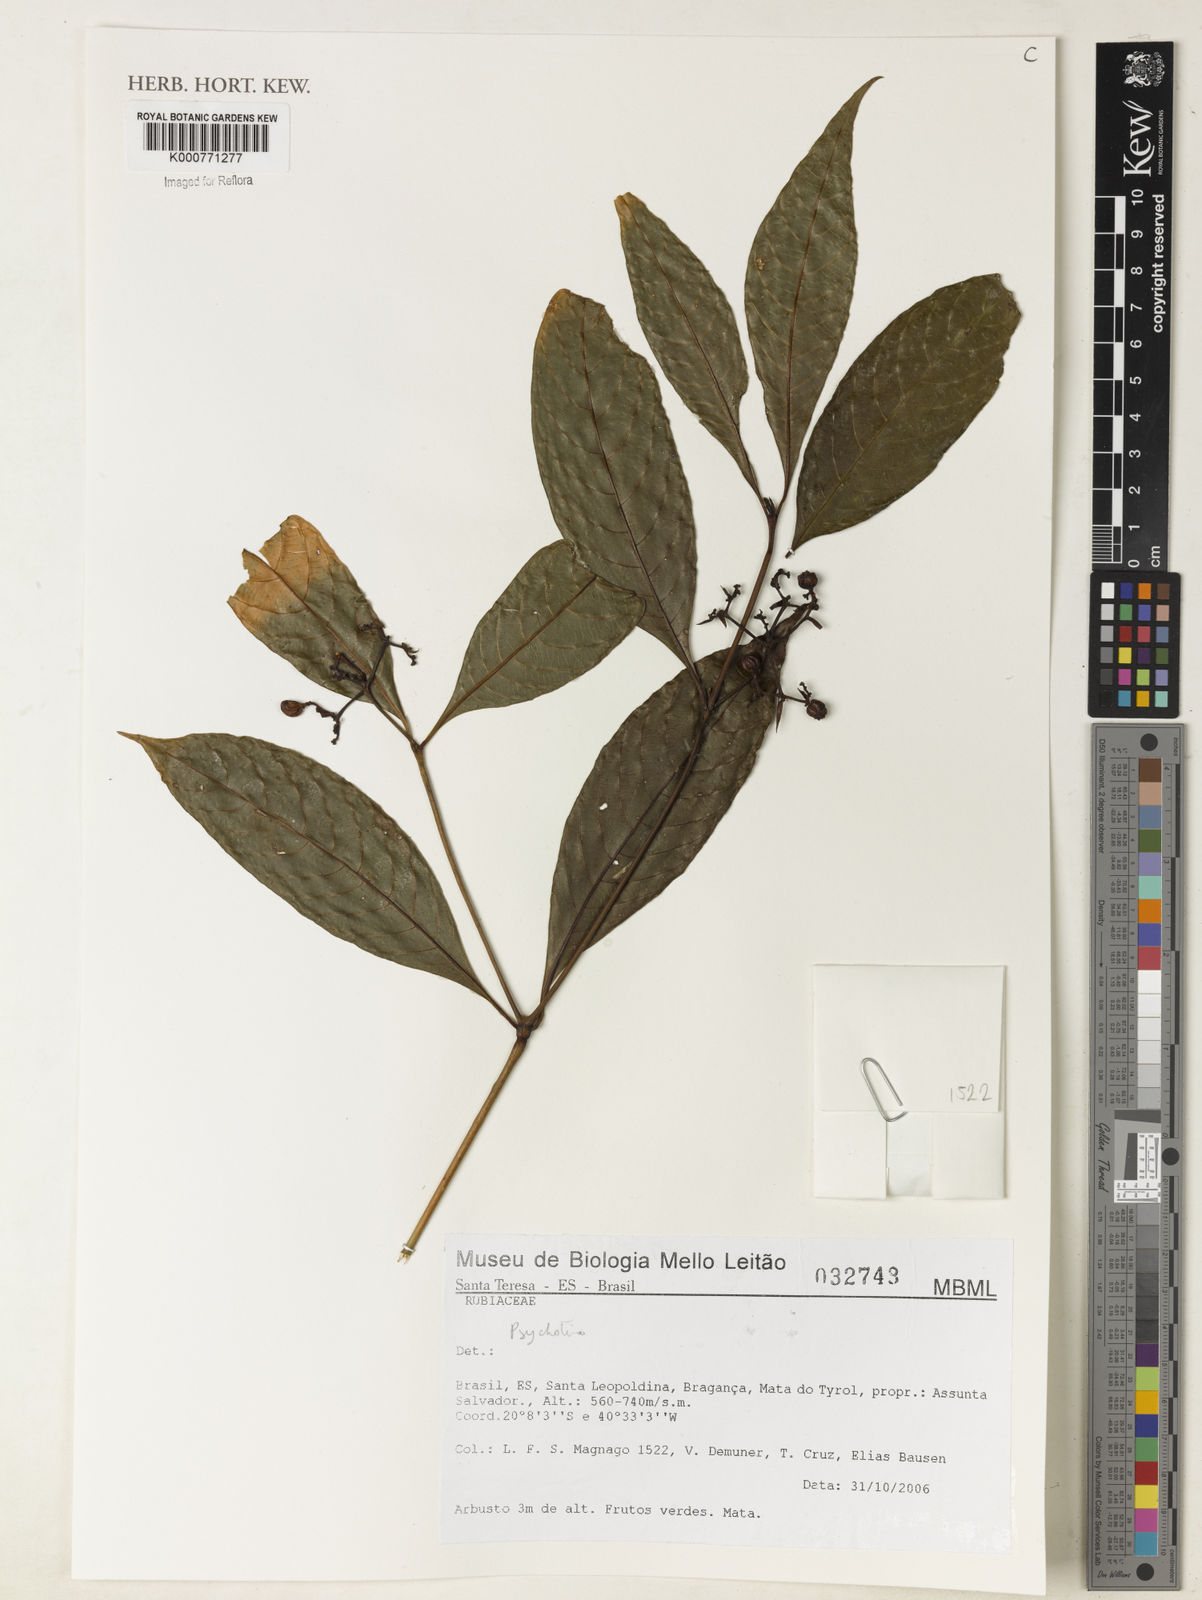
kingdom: Plantae
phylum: Tracheophyta
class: Magnoliopsida
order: Gentianales
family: Rubiaceae
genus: Psychotria
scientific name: Psychotria
